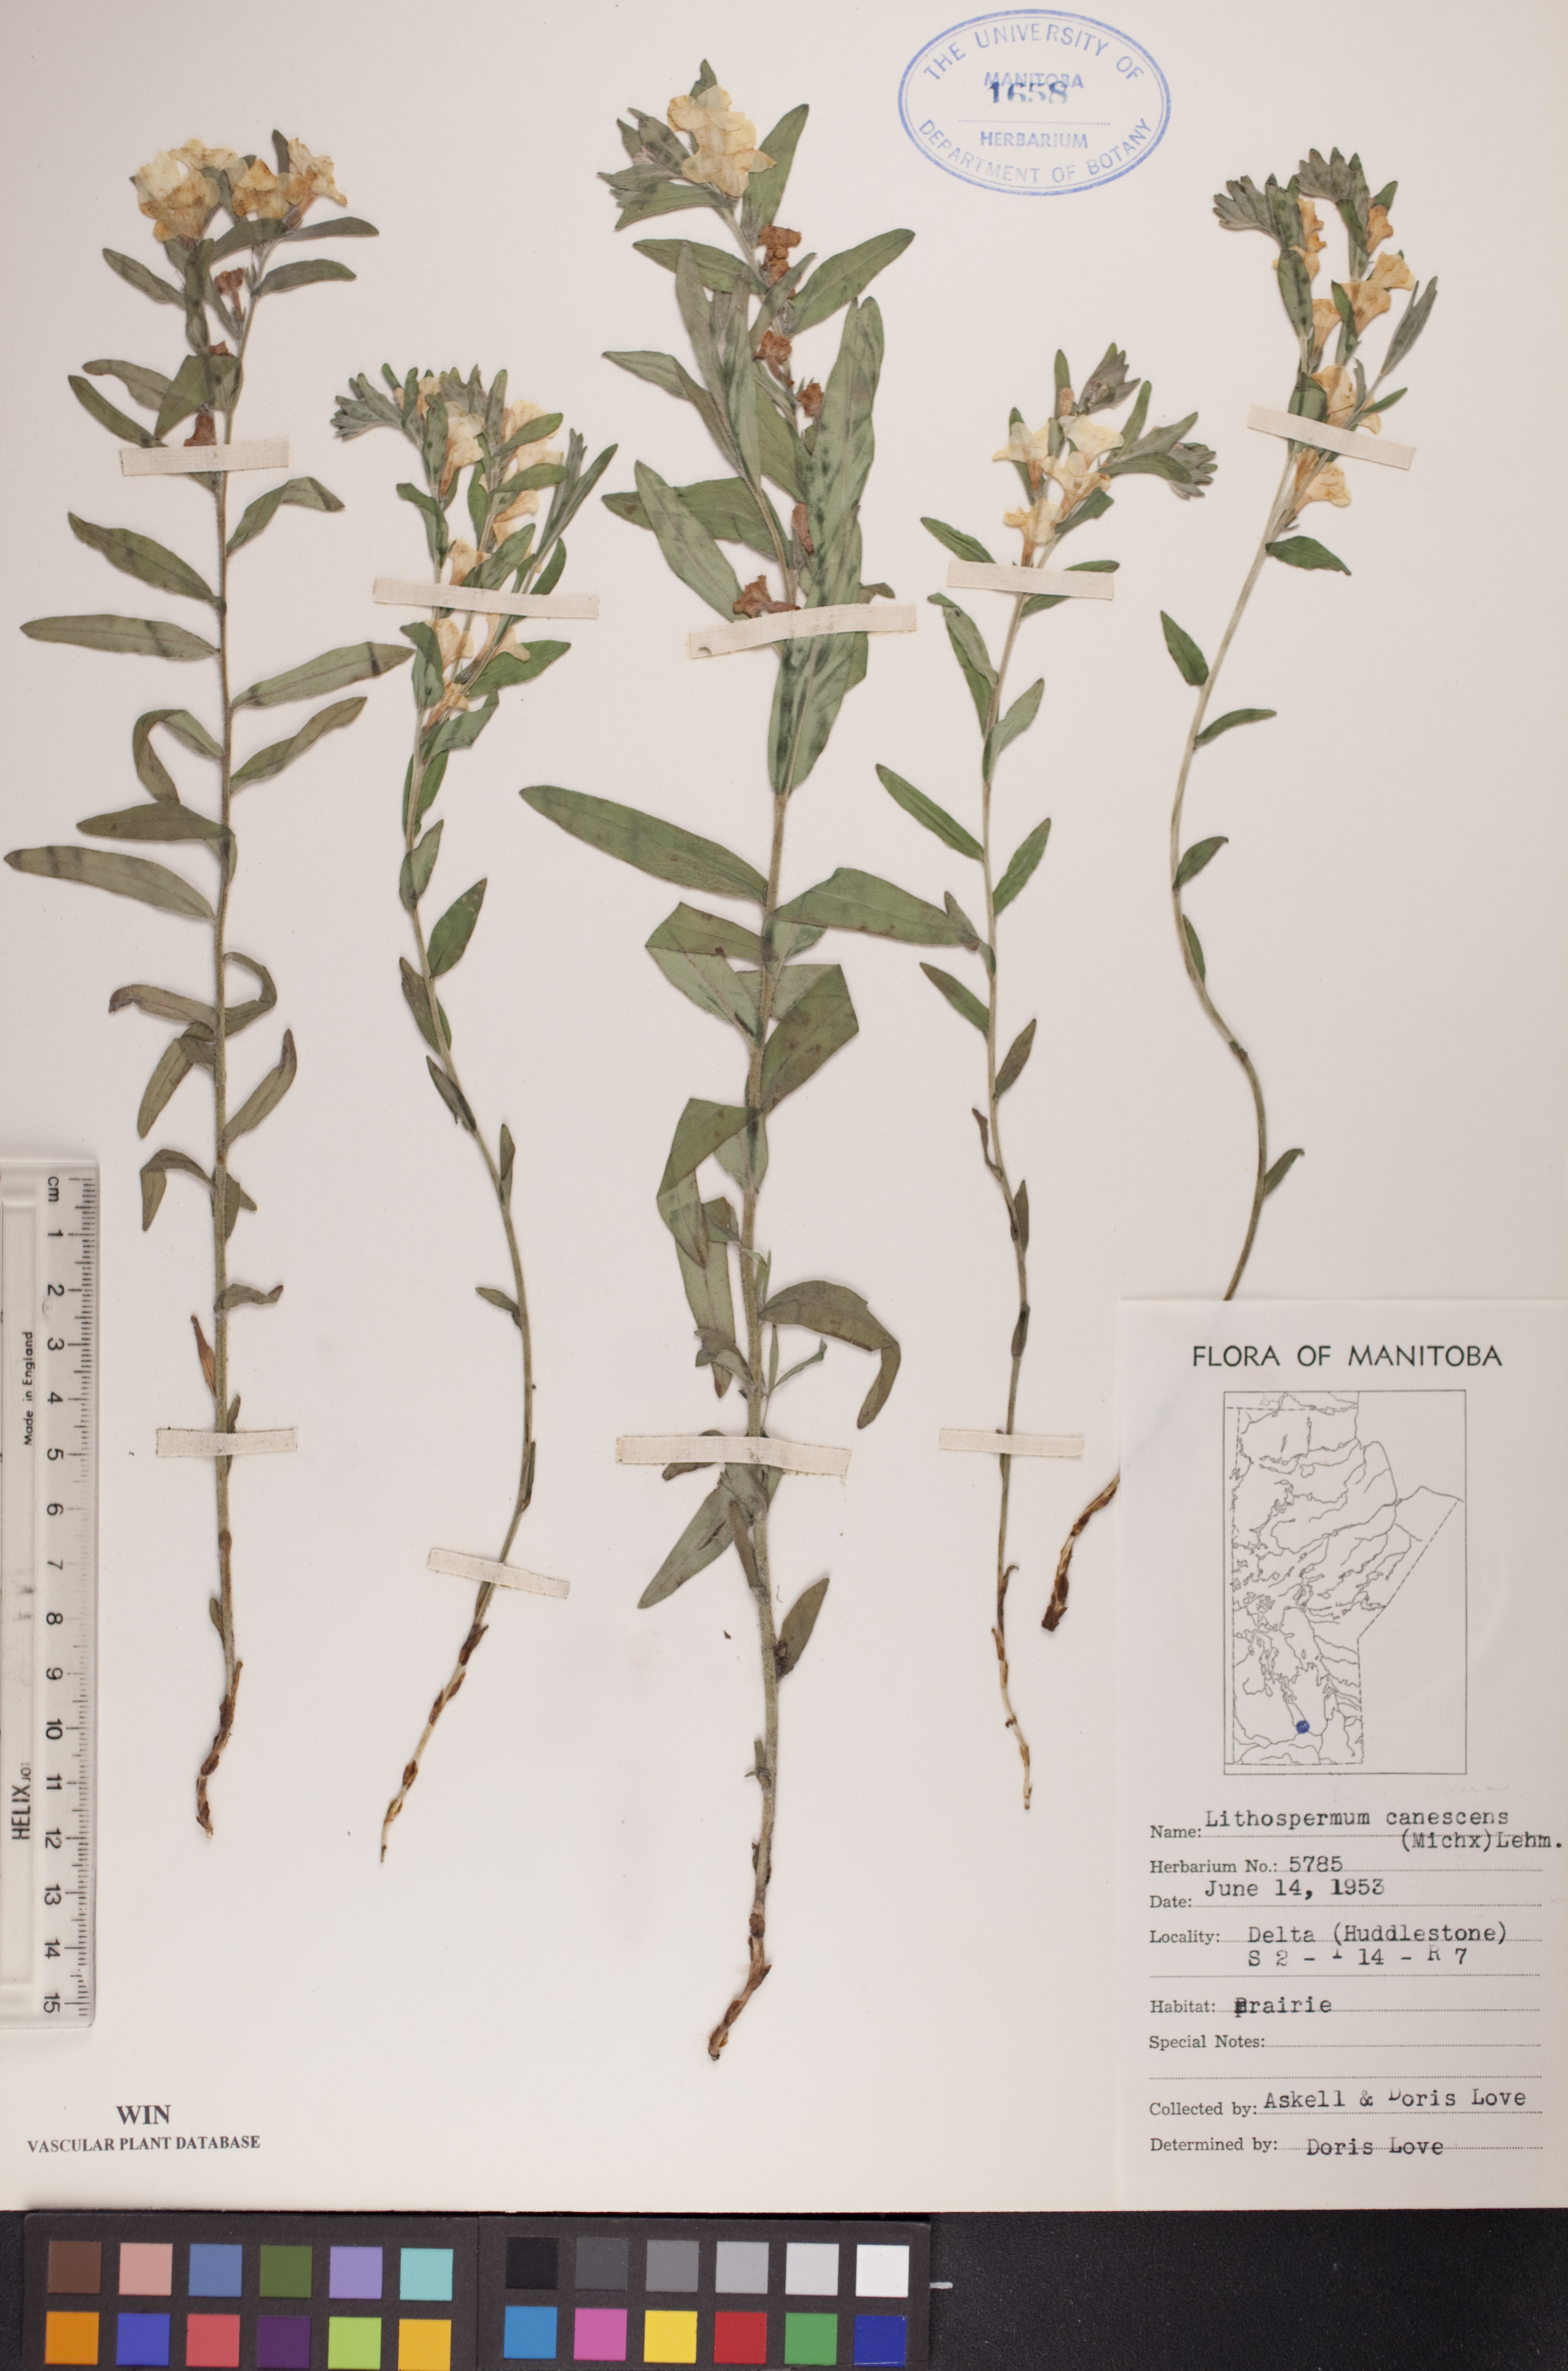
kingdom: Plantae
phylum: Tracheophyta
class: Magnoliopsida
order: Boraginales
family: Boraginaceae
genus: Lithospermum
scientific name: Lithospermum canescens
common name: Hoary puccoon
